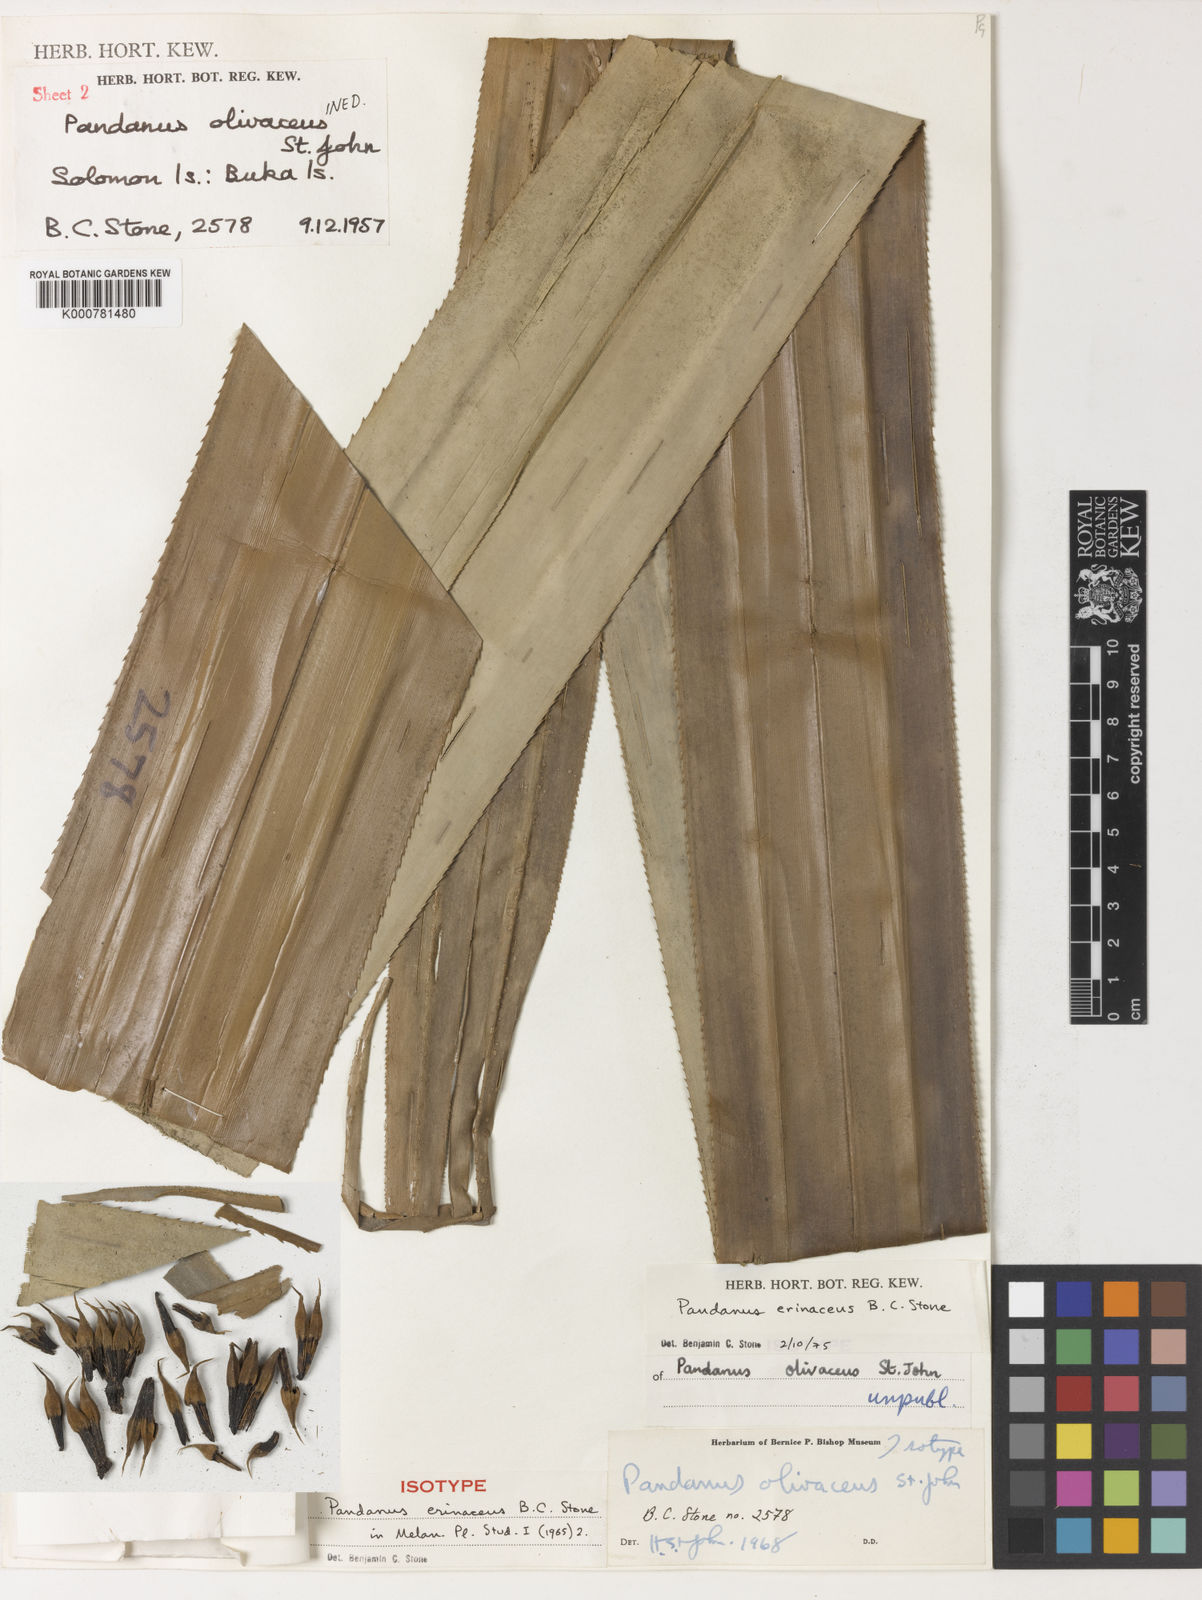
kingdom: Plantae
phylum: Tracheophyta
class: Liliopsida
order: Pandanales
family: Pandanaceae
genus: Benstonea
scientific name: Benstonea stenocarpa
